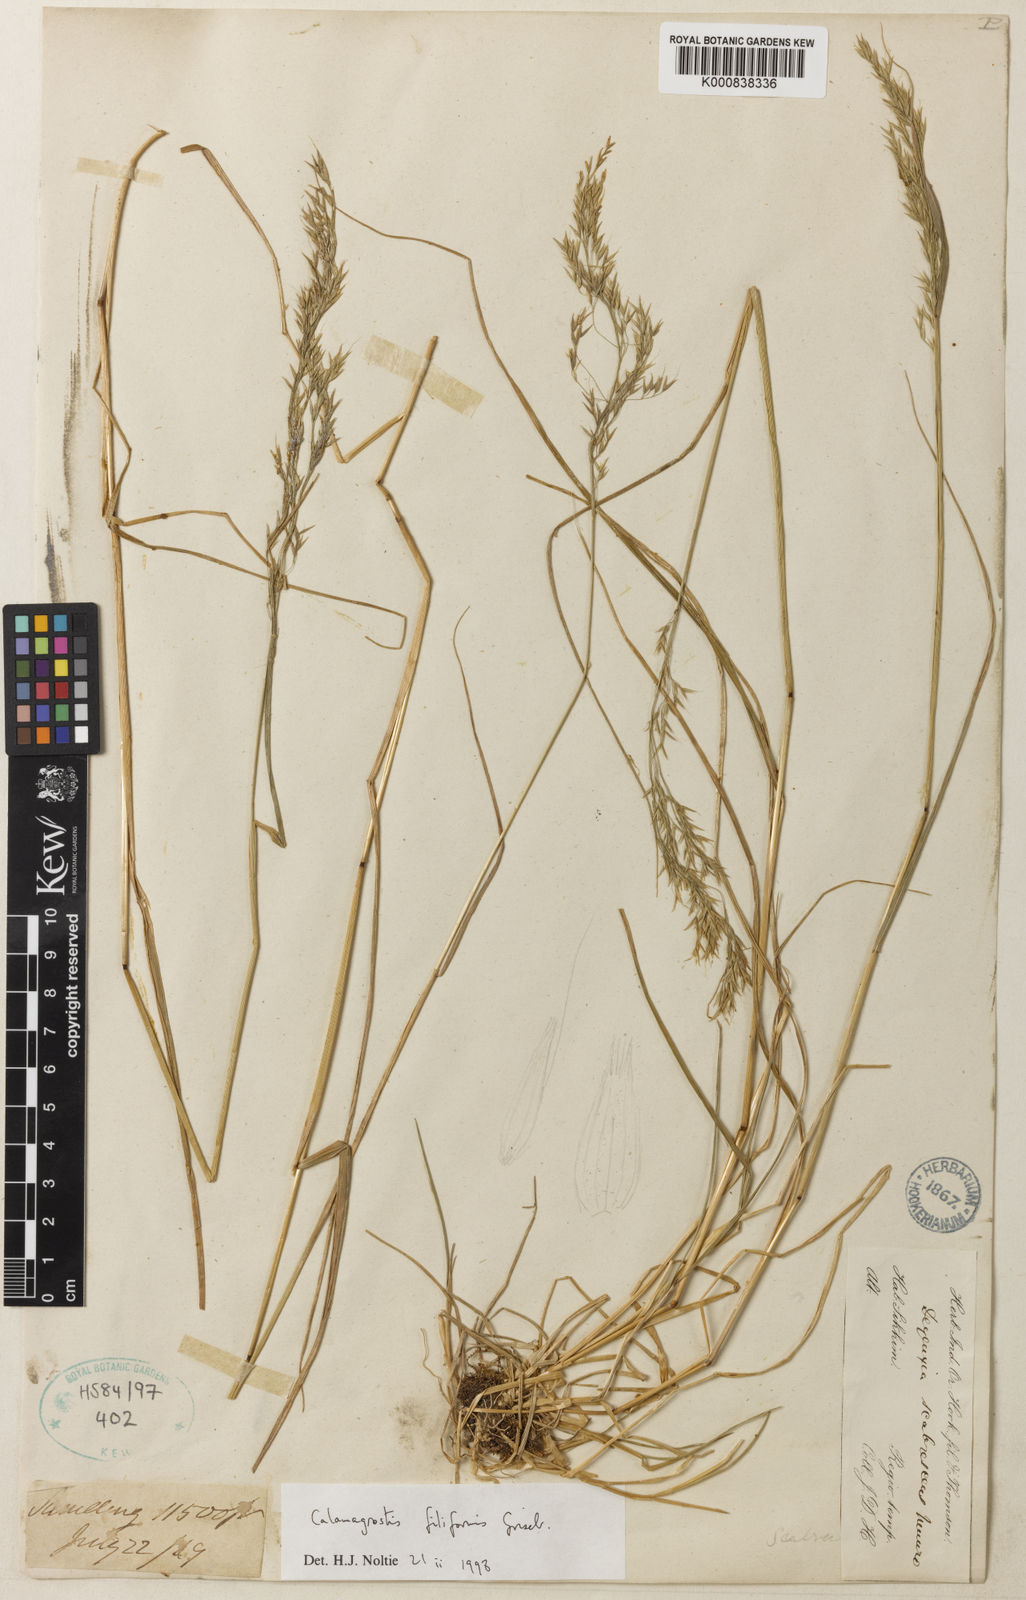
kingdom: Plantae
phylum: Tracheophyta
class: Liliopsida
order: Poales
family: Poaceae
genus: Calamagrostis
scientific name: Calamagrostis scabrescens
